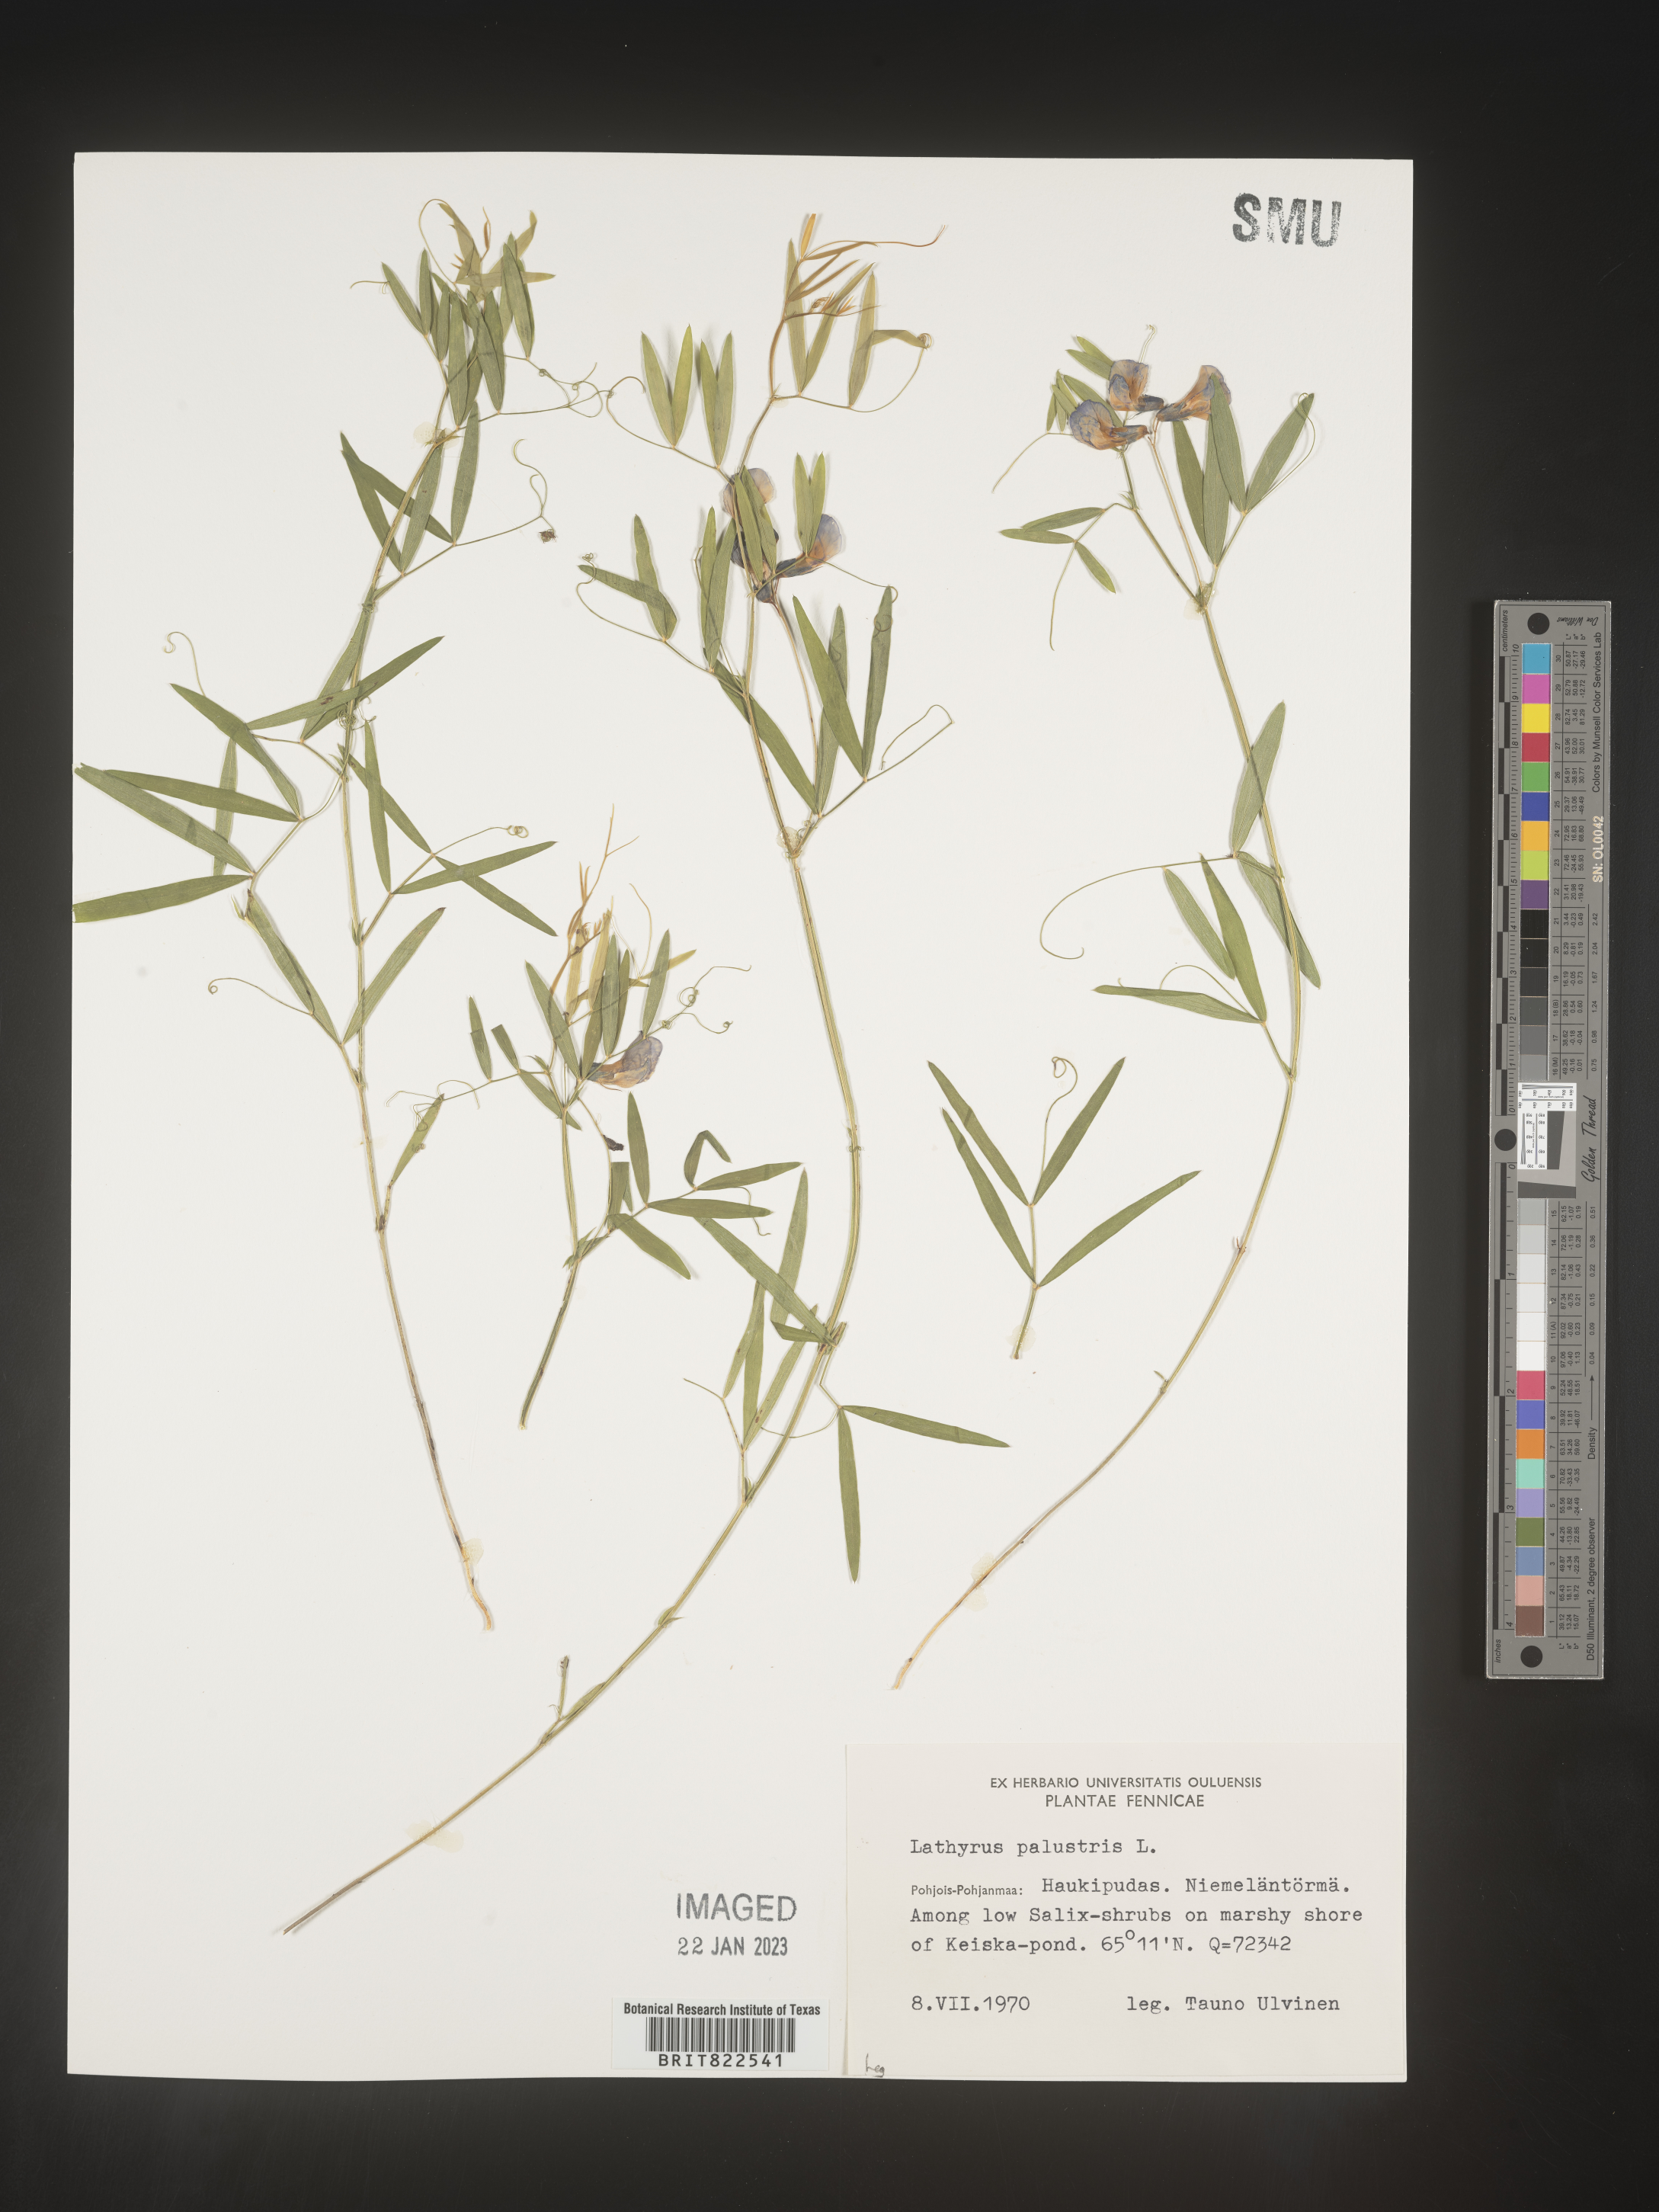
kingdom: Plantae
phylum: Tracheophyta
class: Magnoliopsida
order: Fabales
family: Fabaceae
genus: Lathyrus
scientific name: Lathyrus
